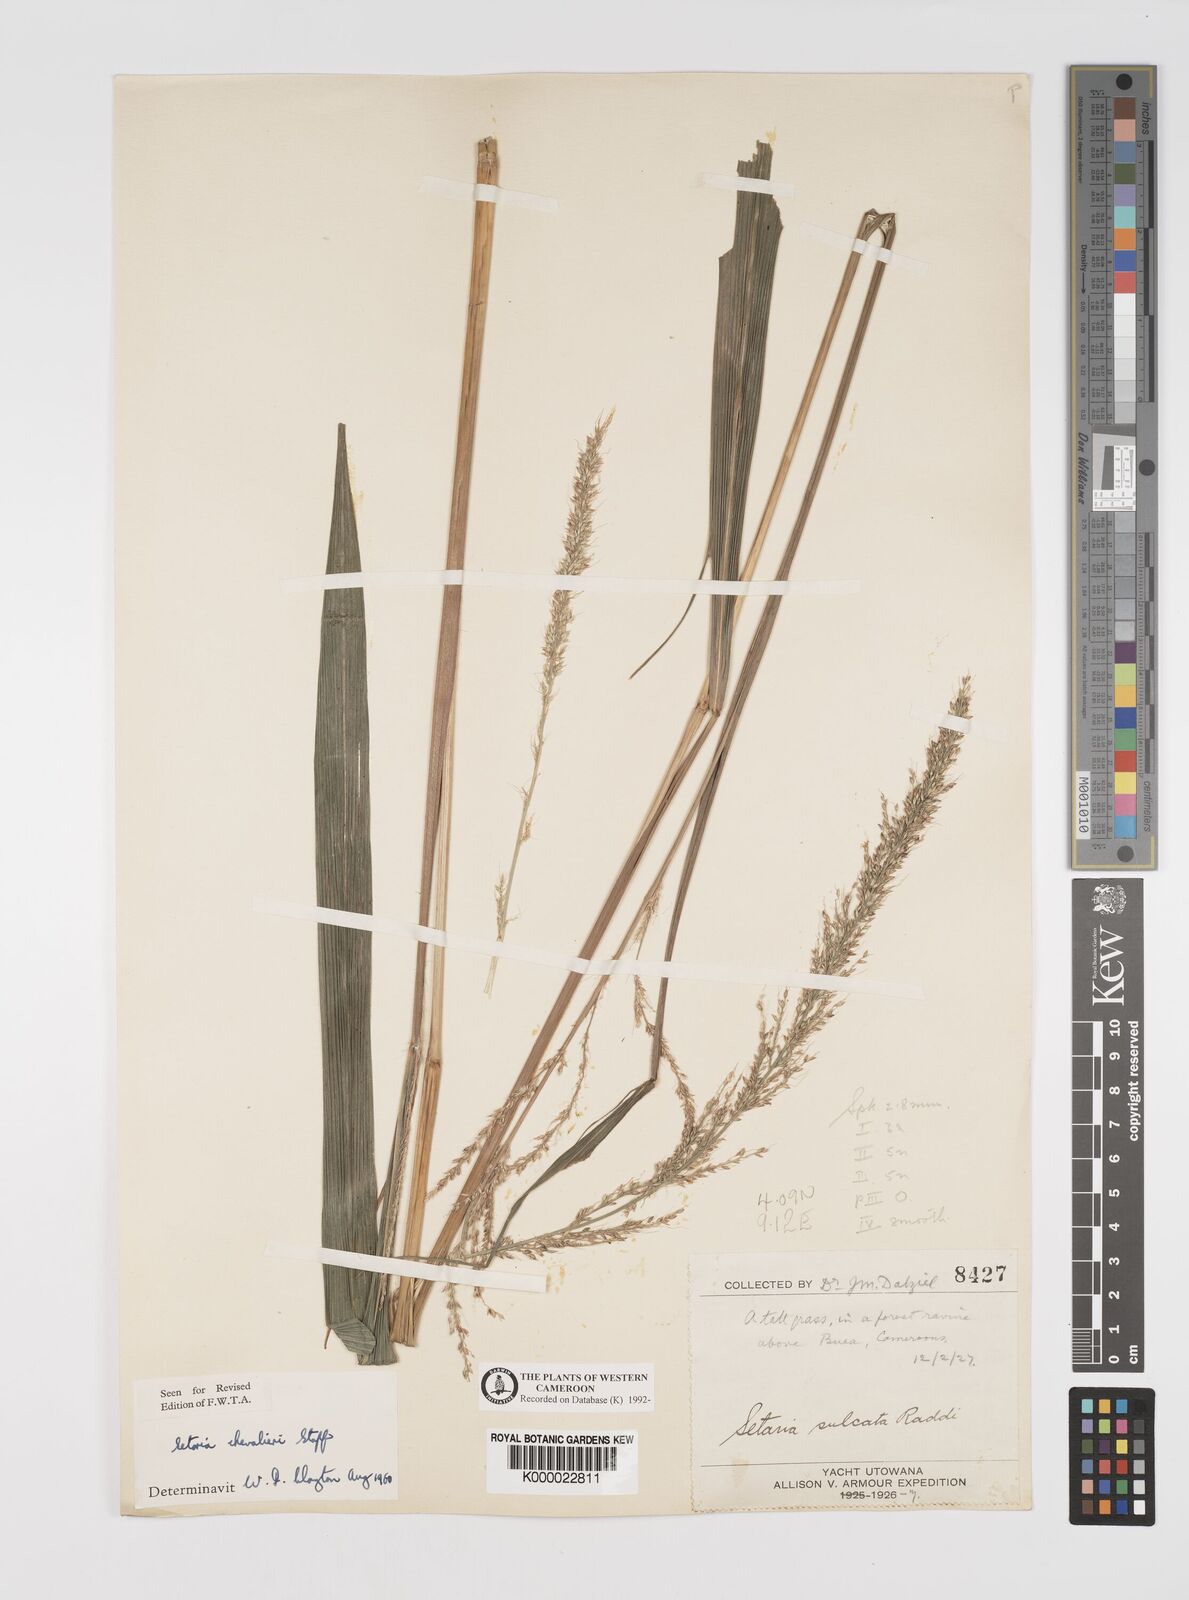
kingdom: Plantae
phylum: Tracheophyta
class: Liliopsida
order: Poales
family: Poaceae
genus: Setaria
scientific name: Setaria megaphylla
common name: Bigleaf bristlegrass
